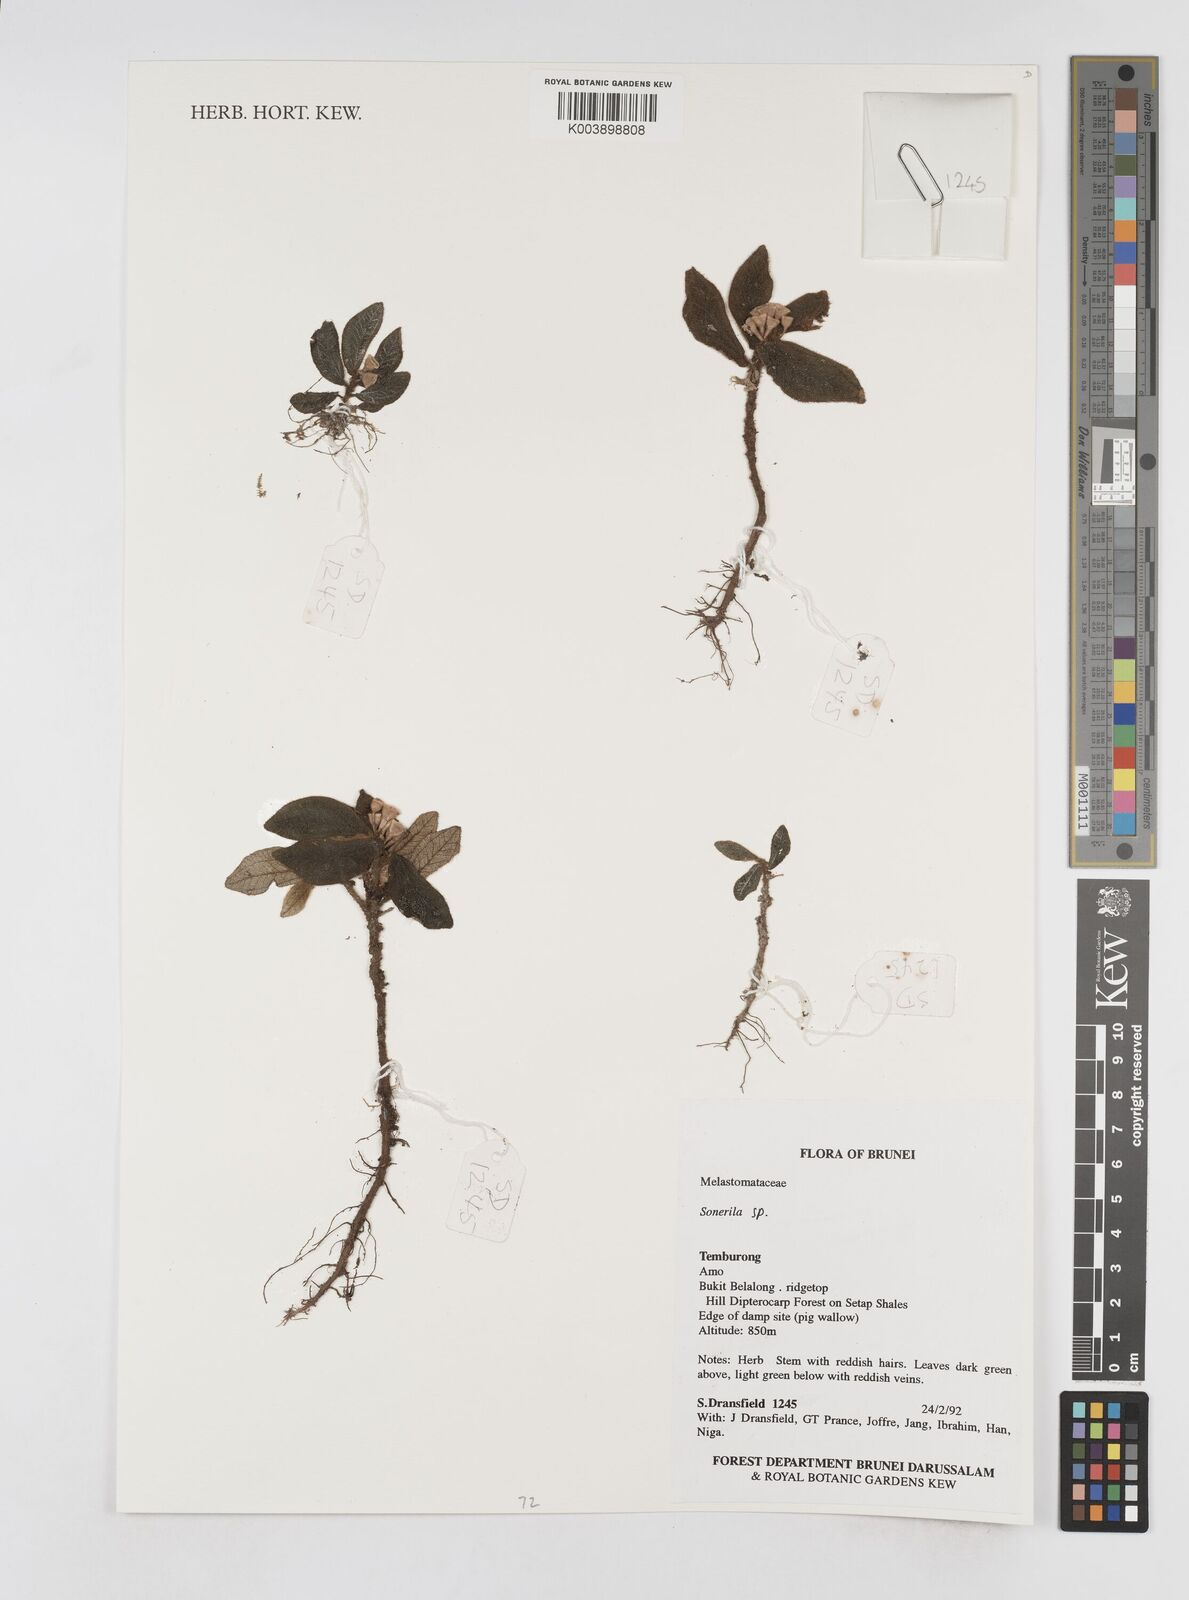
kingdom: Plantae
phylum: Tracheophyta
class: Magnoliopsida
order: Myrtales
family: Melastomataceae
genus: Sonerila
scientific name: Sonerila
